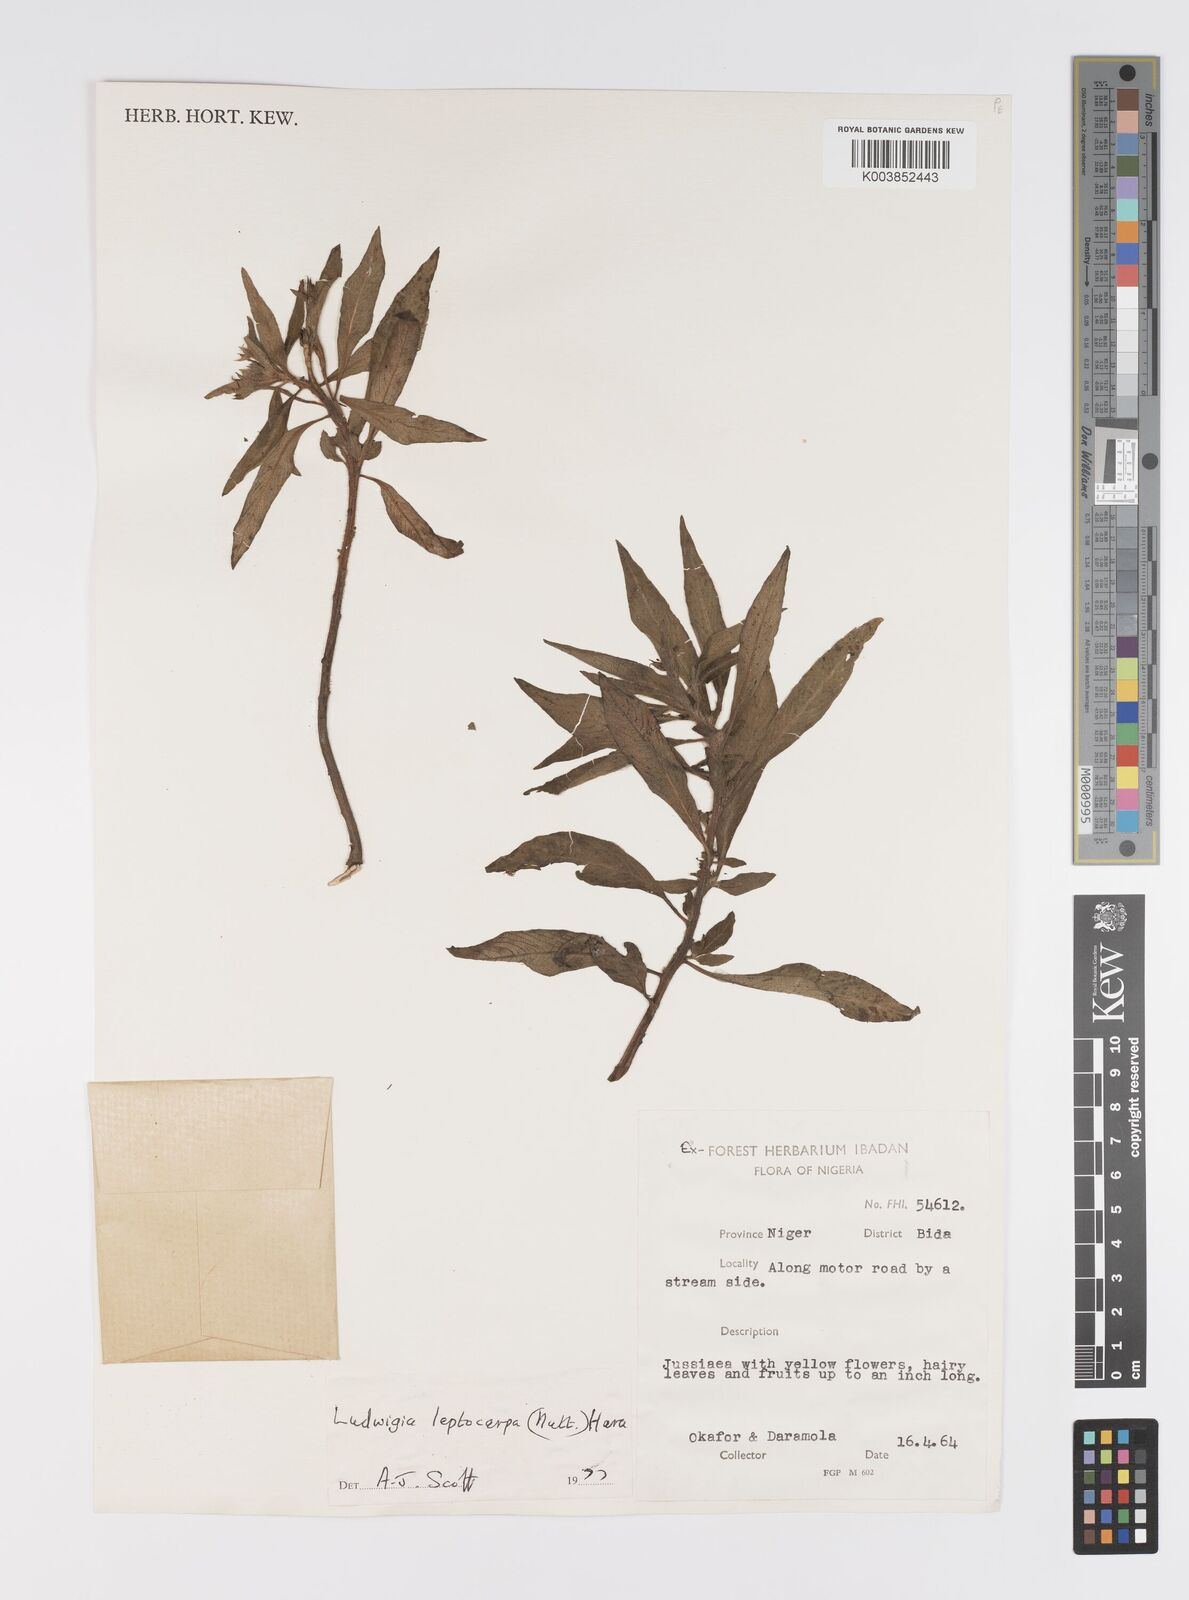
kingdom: Plantae
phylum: Tracheophyta
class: Magnoliopsida
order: Myrtales
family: Onagraceae
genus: Ludwigia
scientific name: Ludwigia leptocarpa
